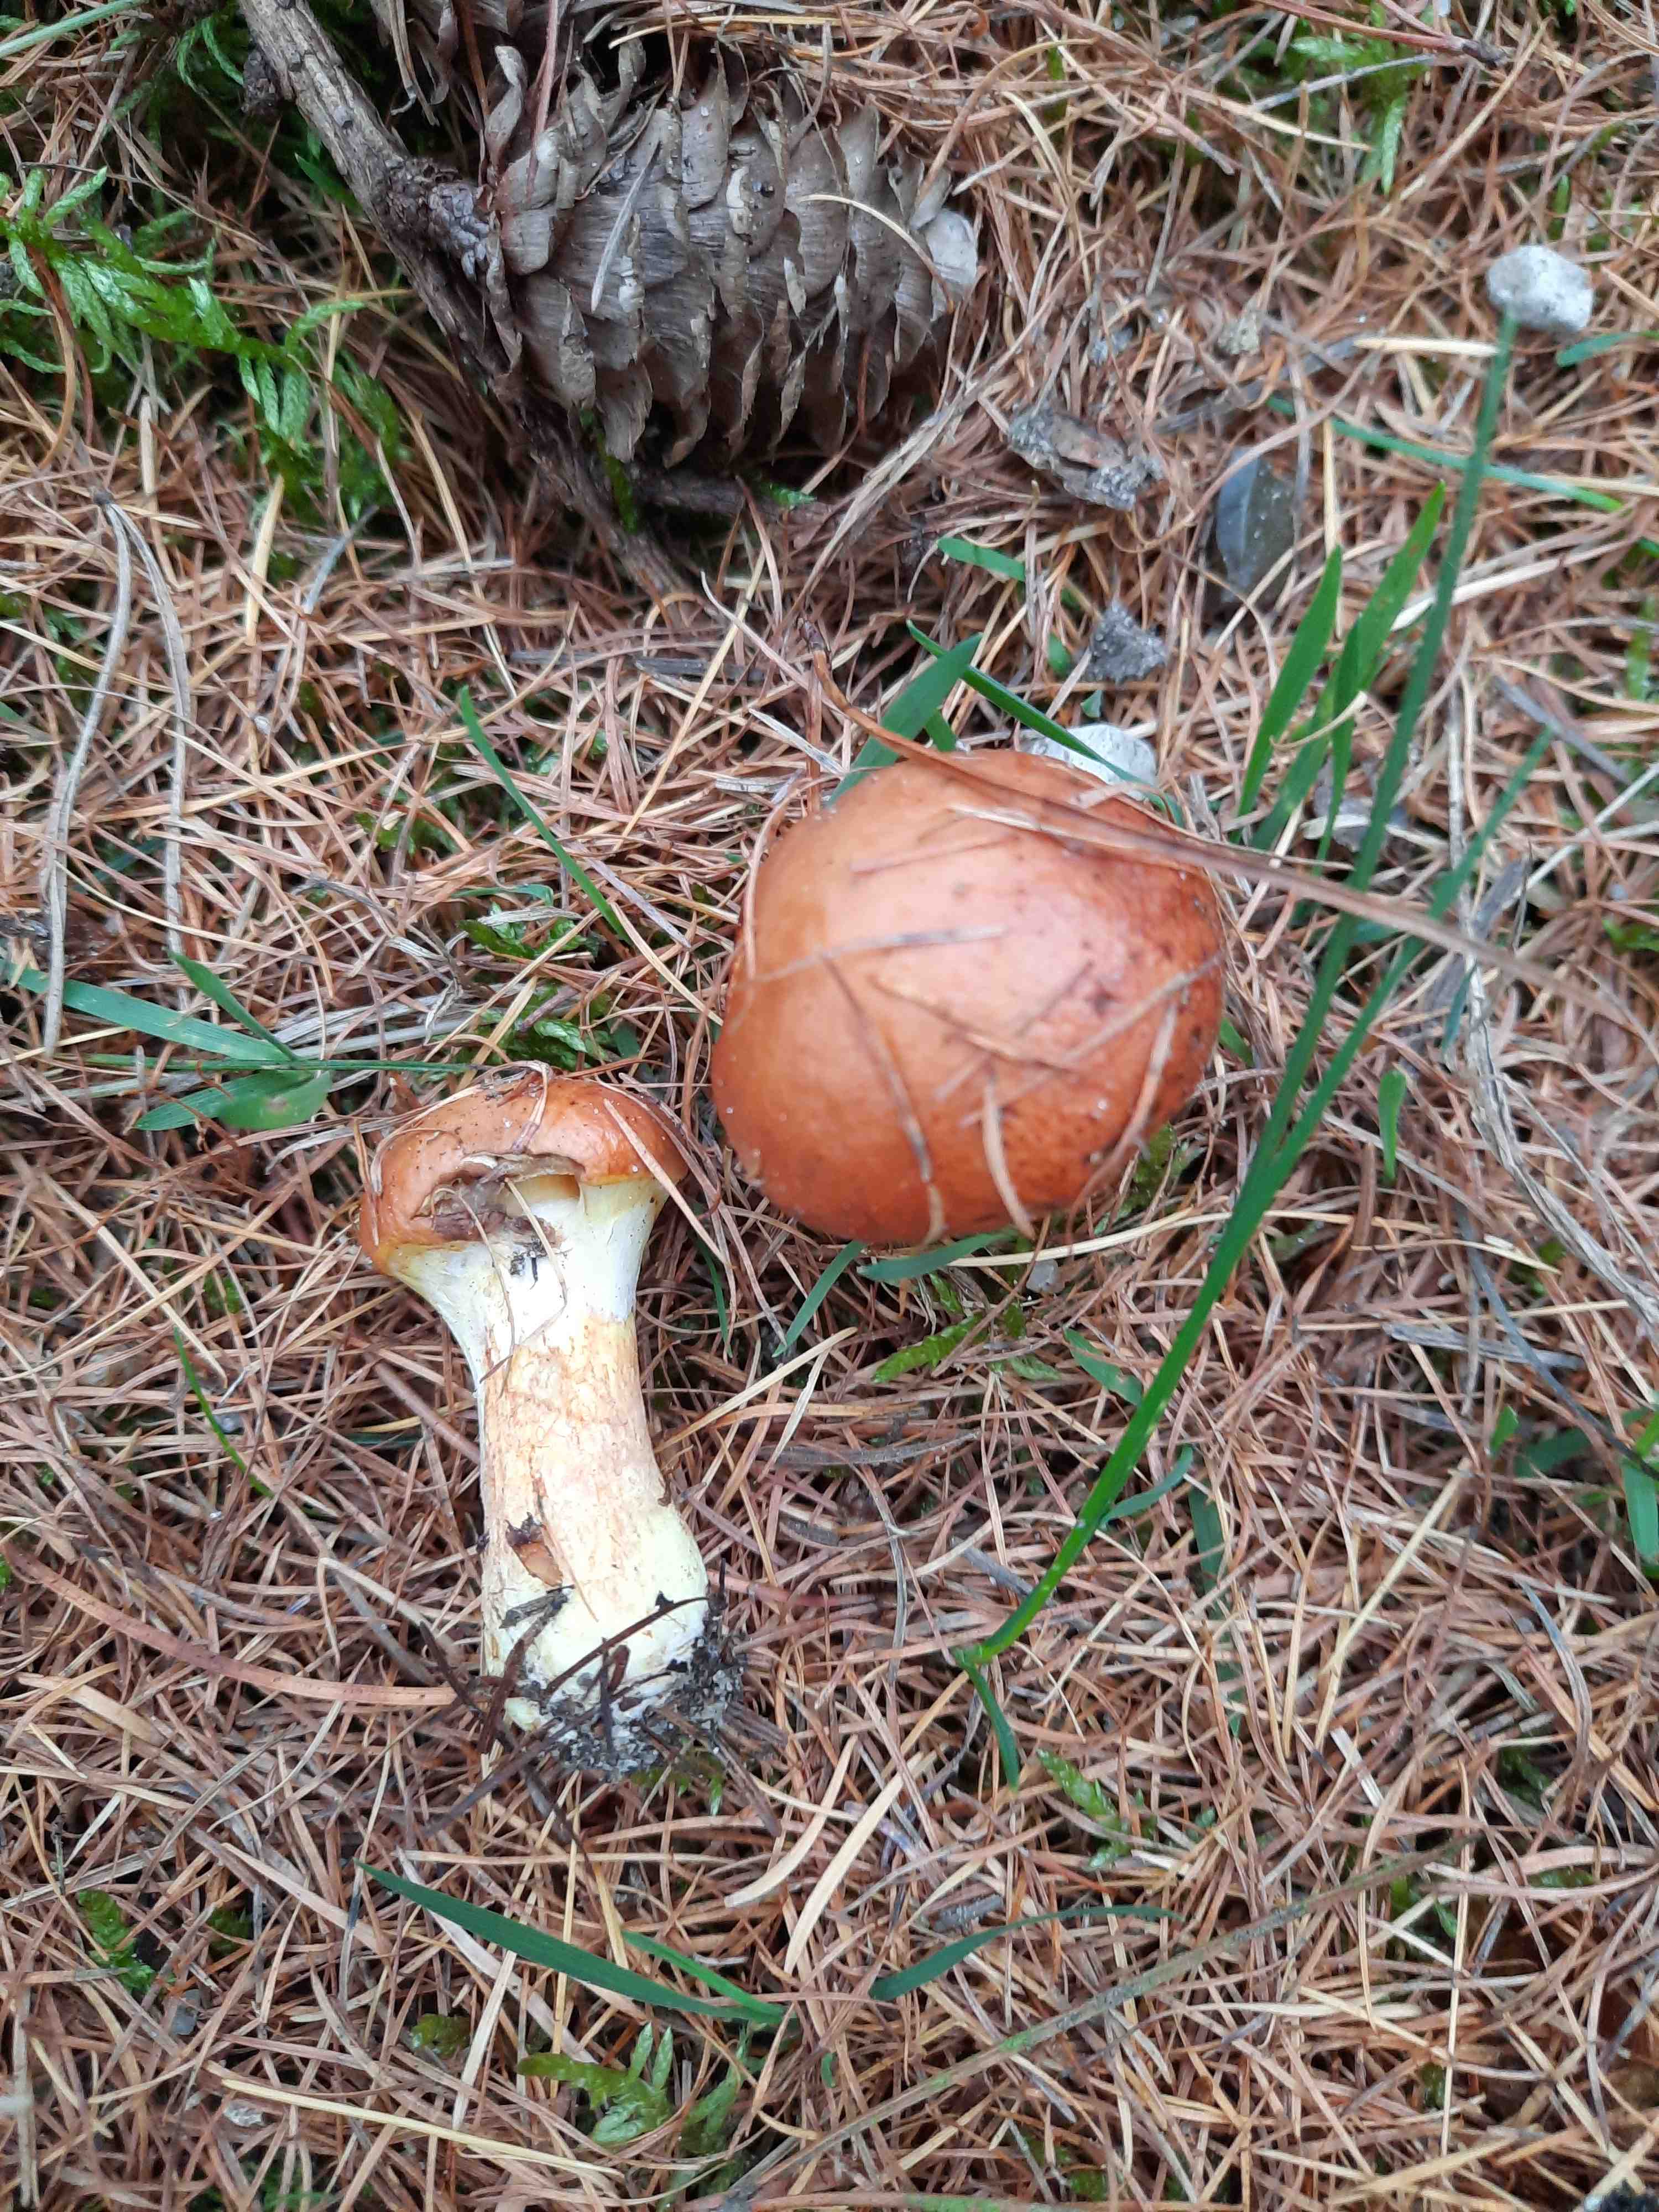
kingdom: Fungi
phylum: Basidiomycota
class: Agaricomycetes
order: Boletales
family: Suillaceae
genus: Suillus
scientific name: Suillus grevillei
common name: lærke-slimrørhat
